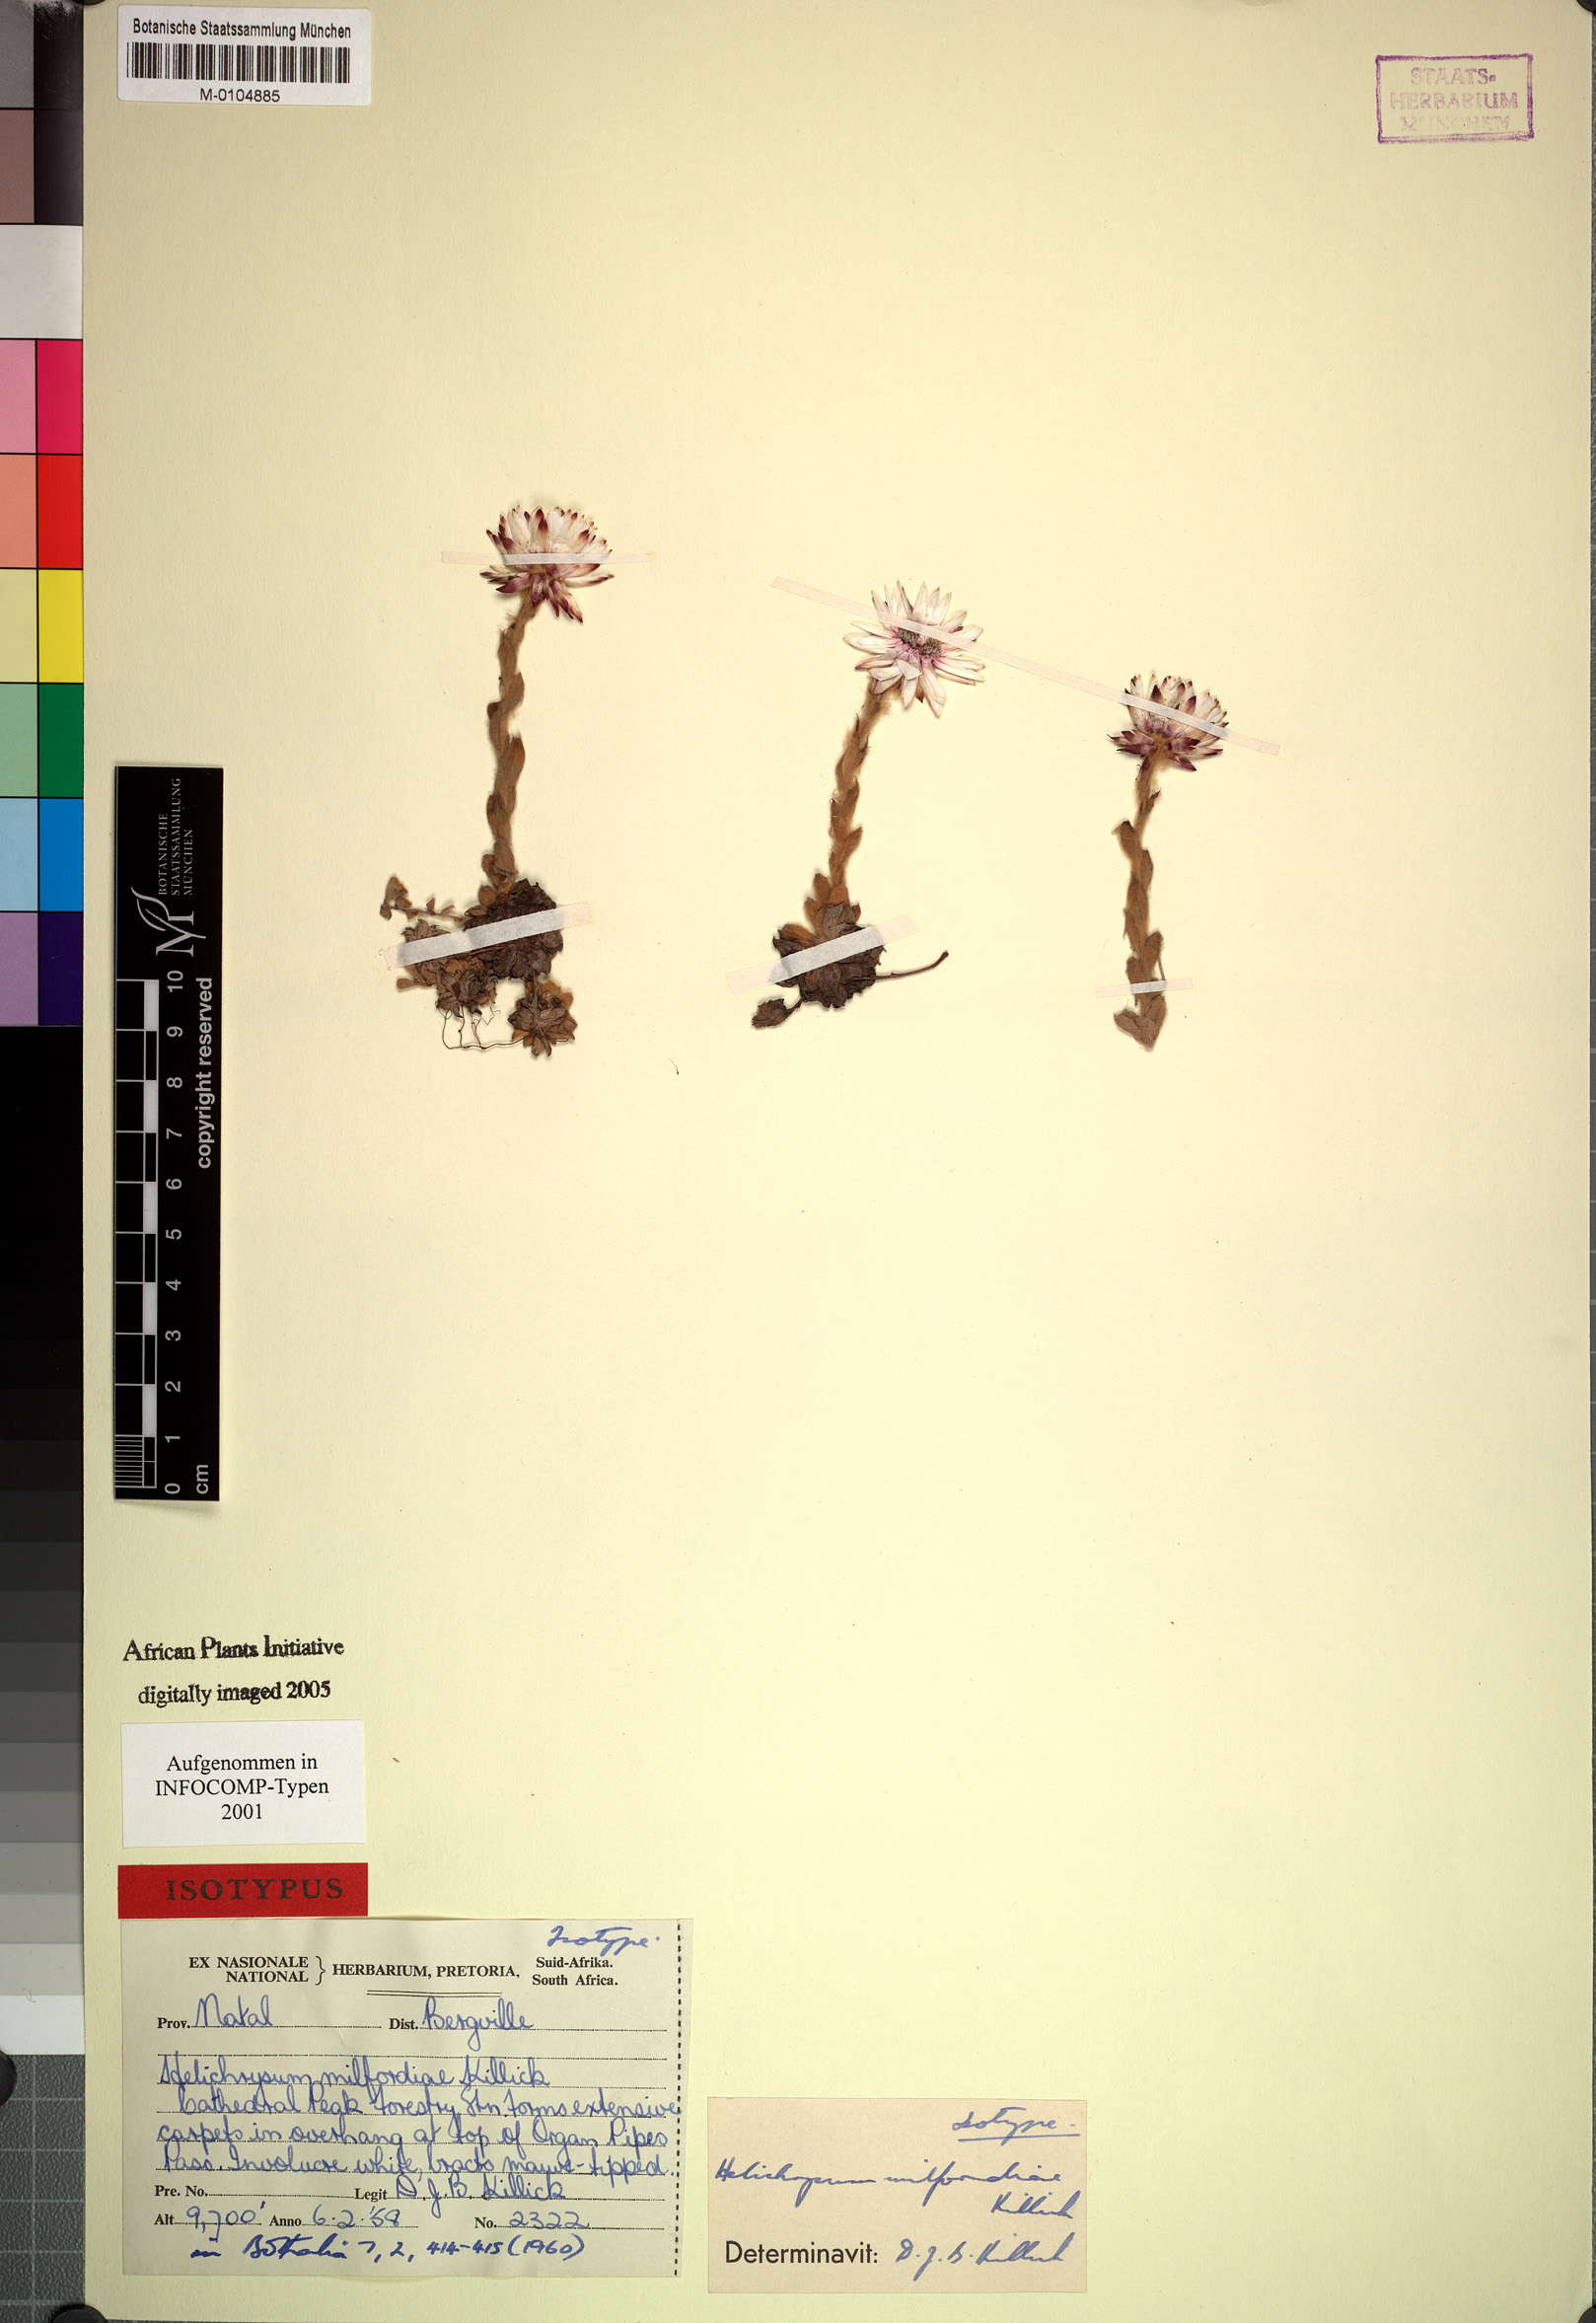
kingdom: Plantae
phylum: Tracheophyta
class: Magnoliopsida
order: Asterales
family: Asteraceae
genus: Helichrysum
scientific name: Helichrysum milfordiae
